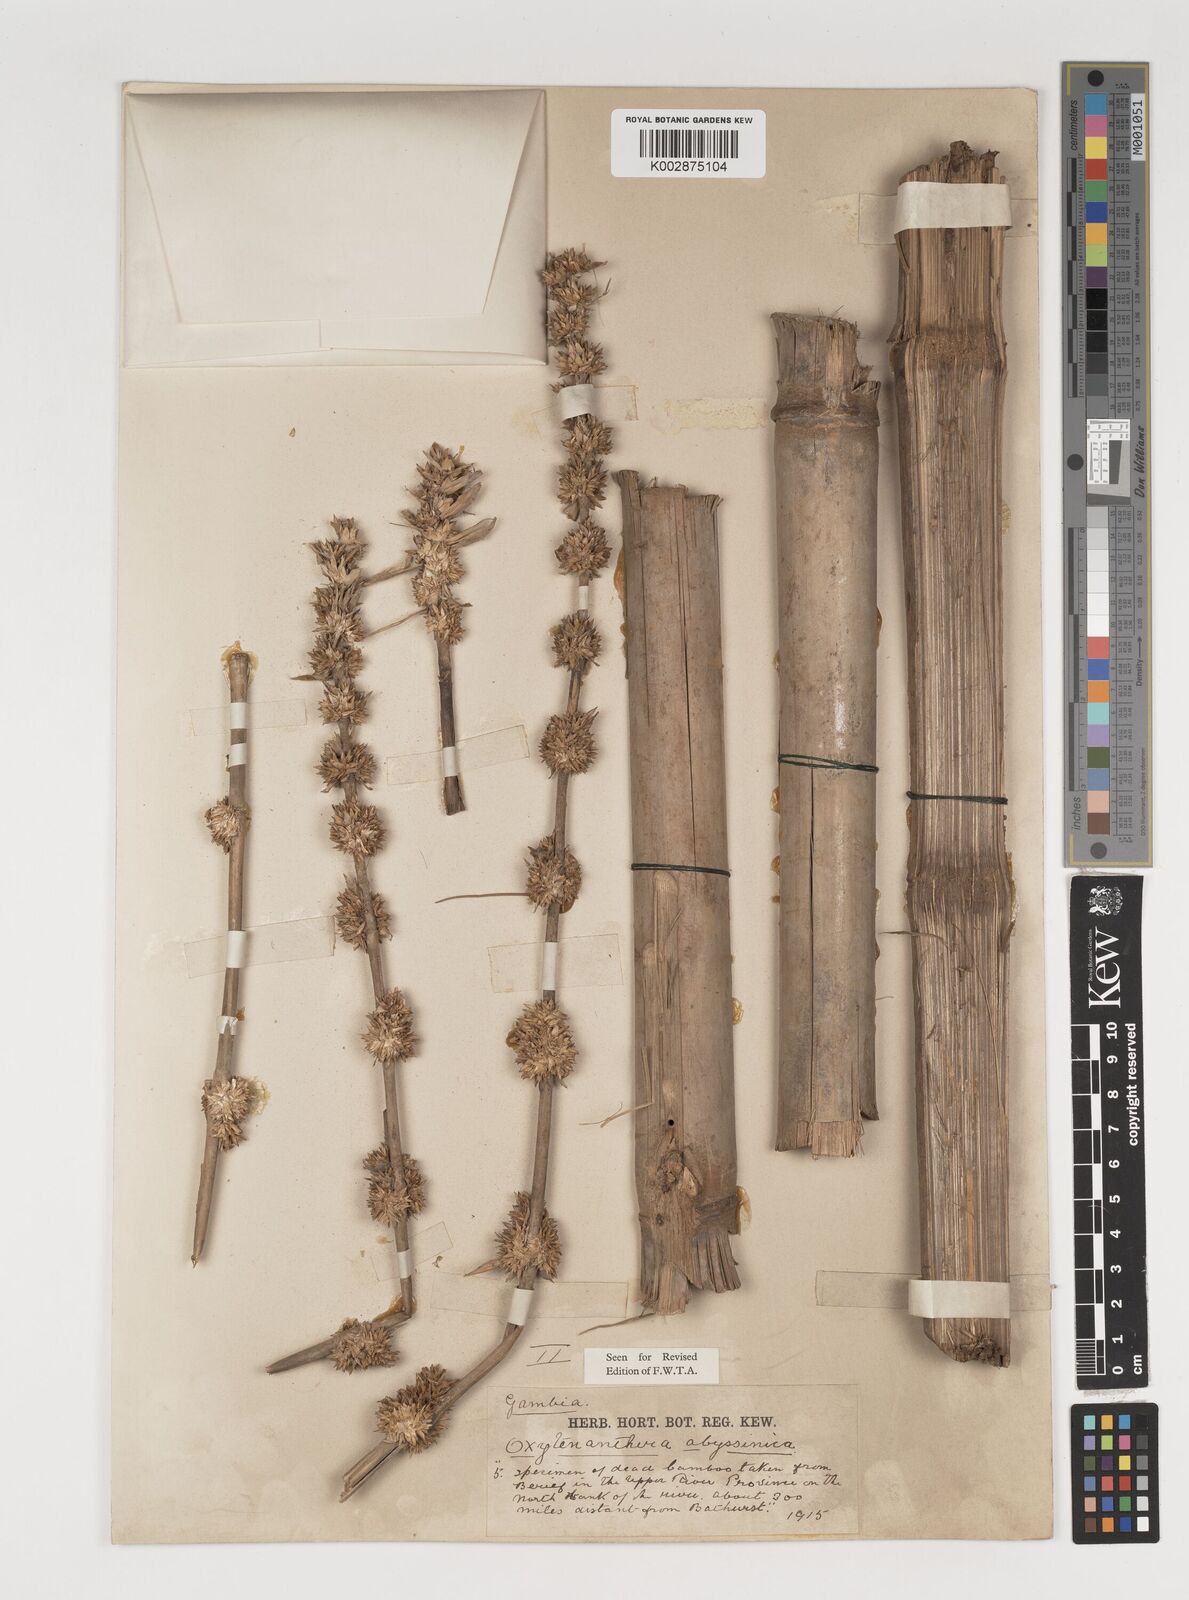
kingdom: Plantae
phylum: Tracheophyta
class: Liliopsida
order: Poales
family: Poaceae
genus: Oxytenanthera
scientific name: Oxytenanthera abyssinica
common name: Wine bamboo
